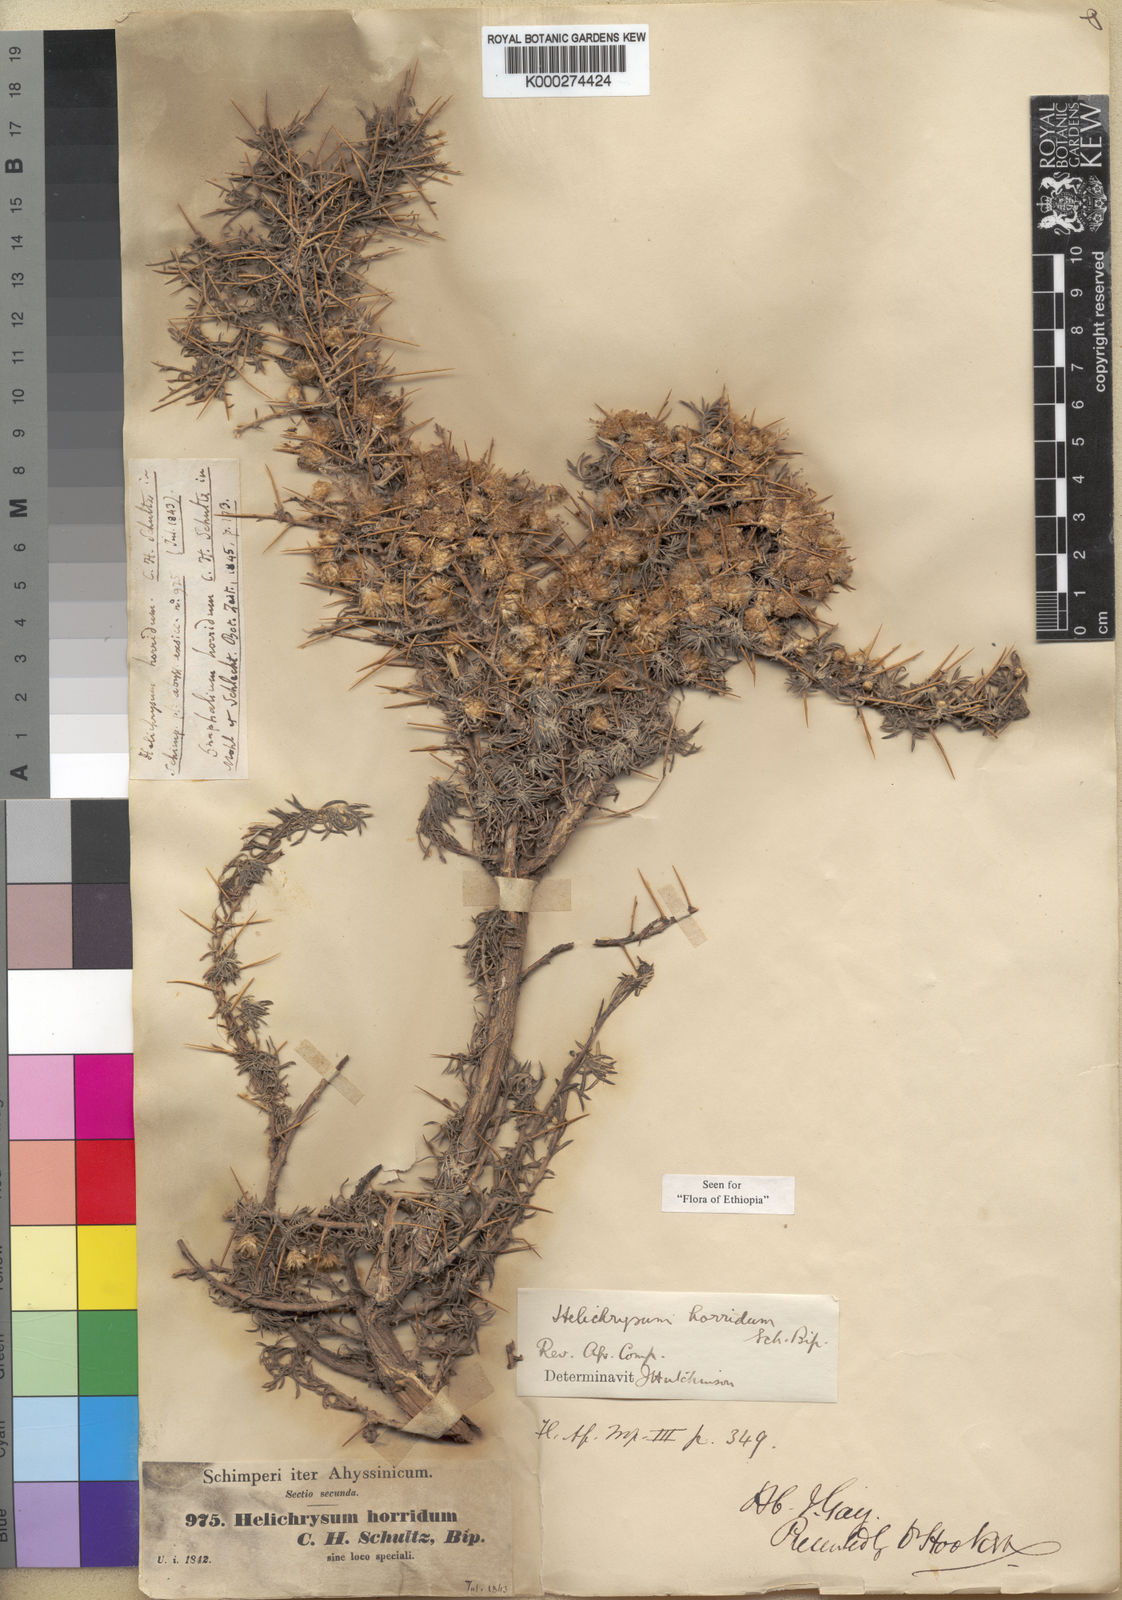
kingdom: Plantae
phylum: Tracheophyta
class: Magnoliopsida
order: Asterales
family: Asteraceae
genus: Helichrysum
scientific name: Helichrysum horridum
